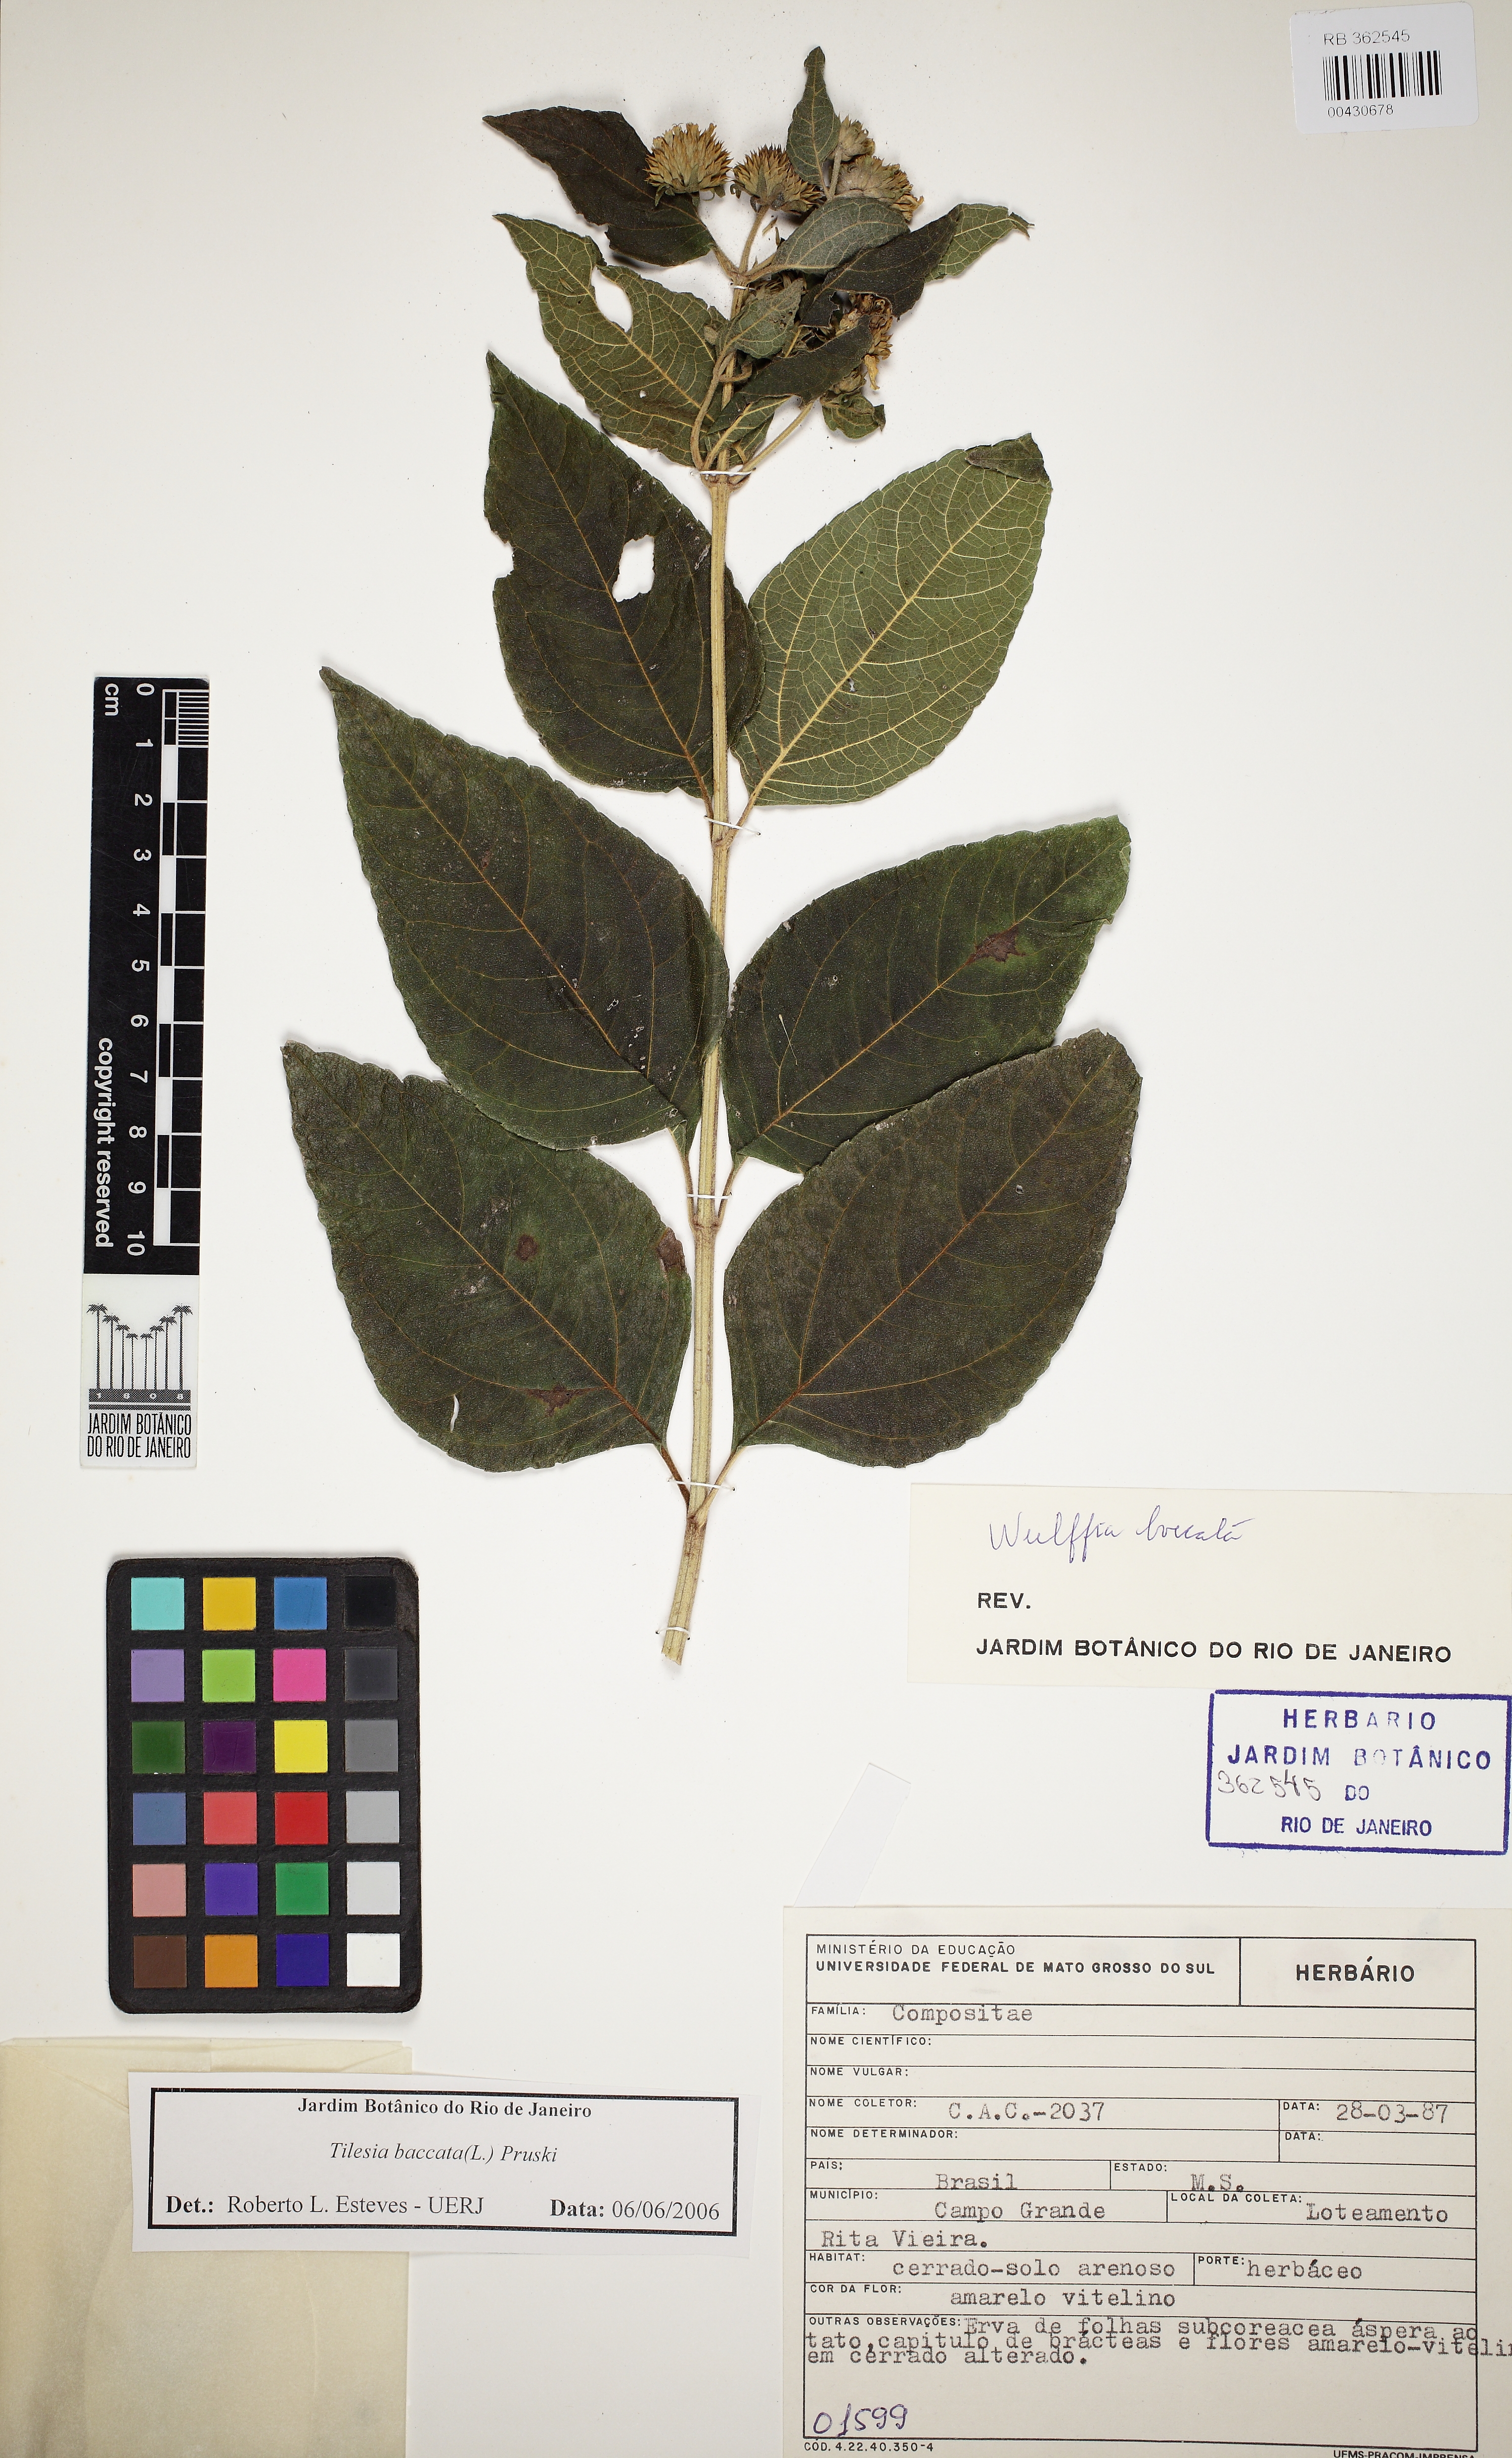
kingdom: Plantae
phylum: Tracheophyta
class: Magnoliopsida
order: Asterales
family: Asteraceae
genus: Tilesia
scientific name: Tilesia baccata
